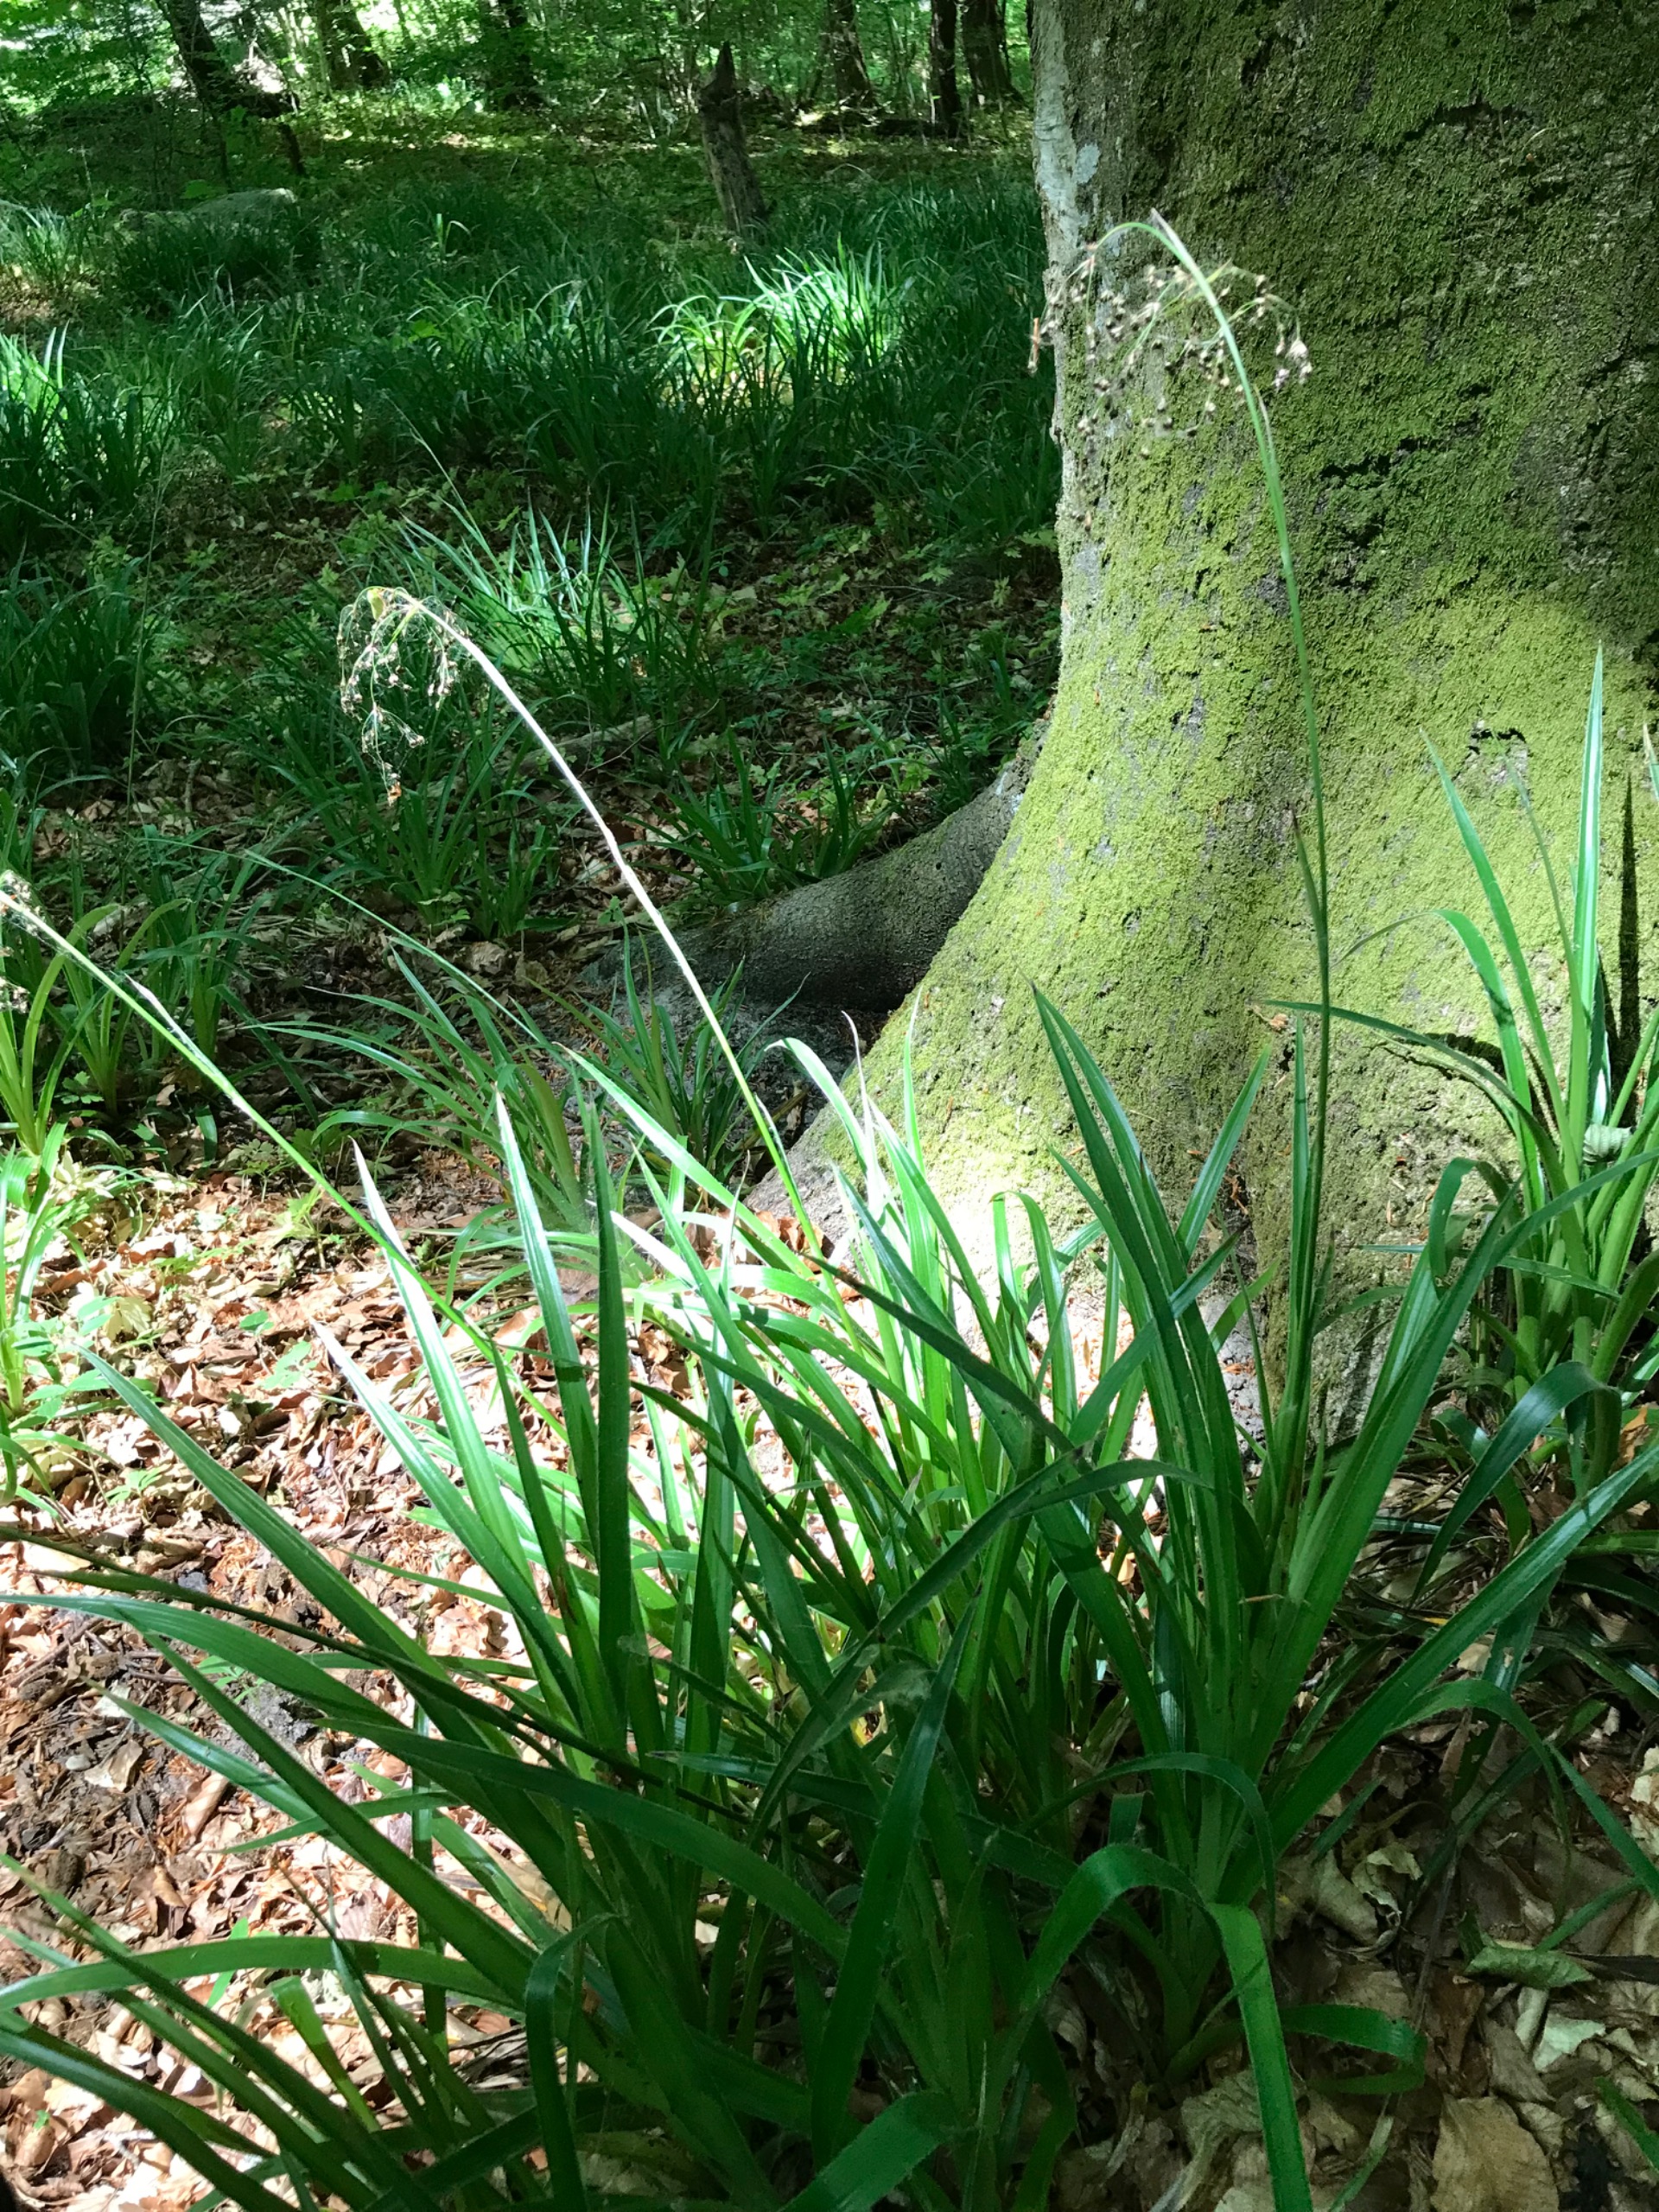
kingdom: Plantae
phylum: Tracheophyta
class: Liliopsida
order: Poales
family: Juncaceae
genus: Luzula
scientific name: Luzula sylvatica
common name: Stor frytle
